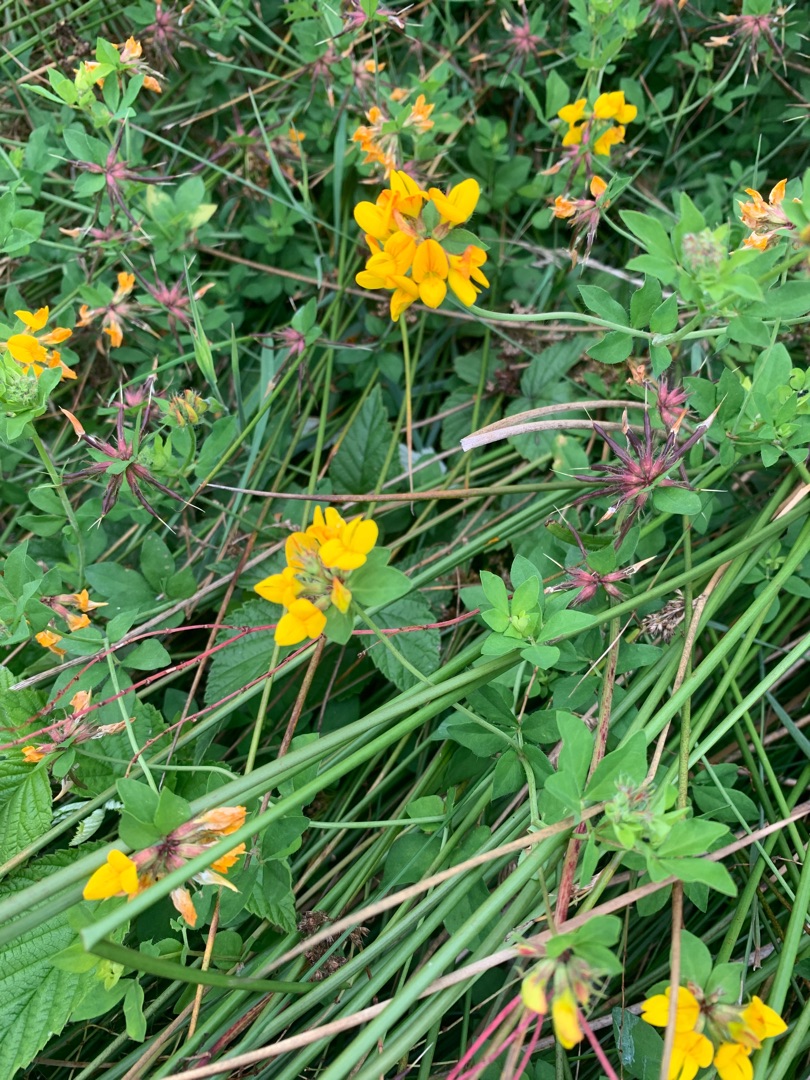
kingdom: Plantae
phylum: Tracheophyta
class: Magnoliopsida
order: Fabales
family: Fabaceae
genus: Lotus
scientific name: Lotus pedunculatus
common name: Sump-kællingetand
